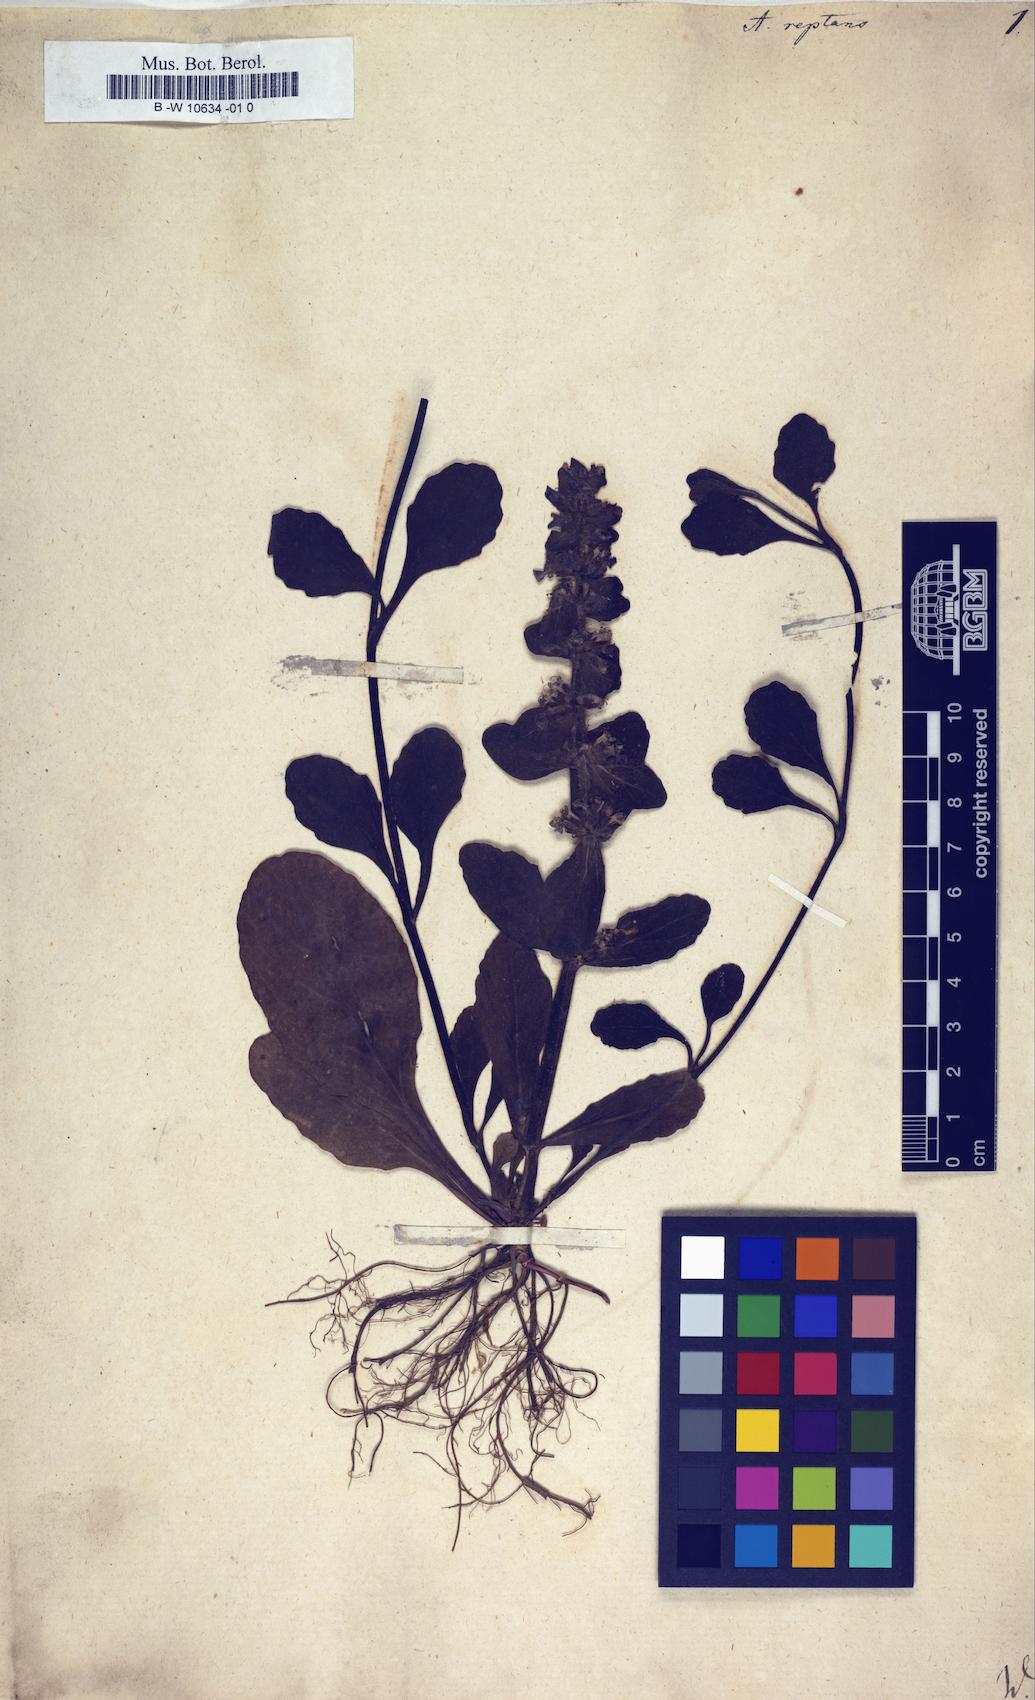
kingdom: Plantae
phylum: Tracheophyta
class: Magnoliopsida
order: Lamiales
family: Lamiaceae
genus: Ajuga
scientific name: Ajuga reptans
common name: Bugle
